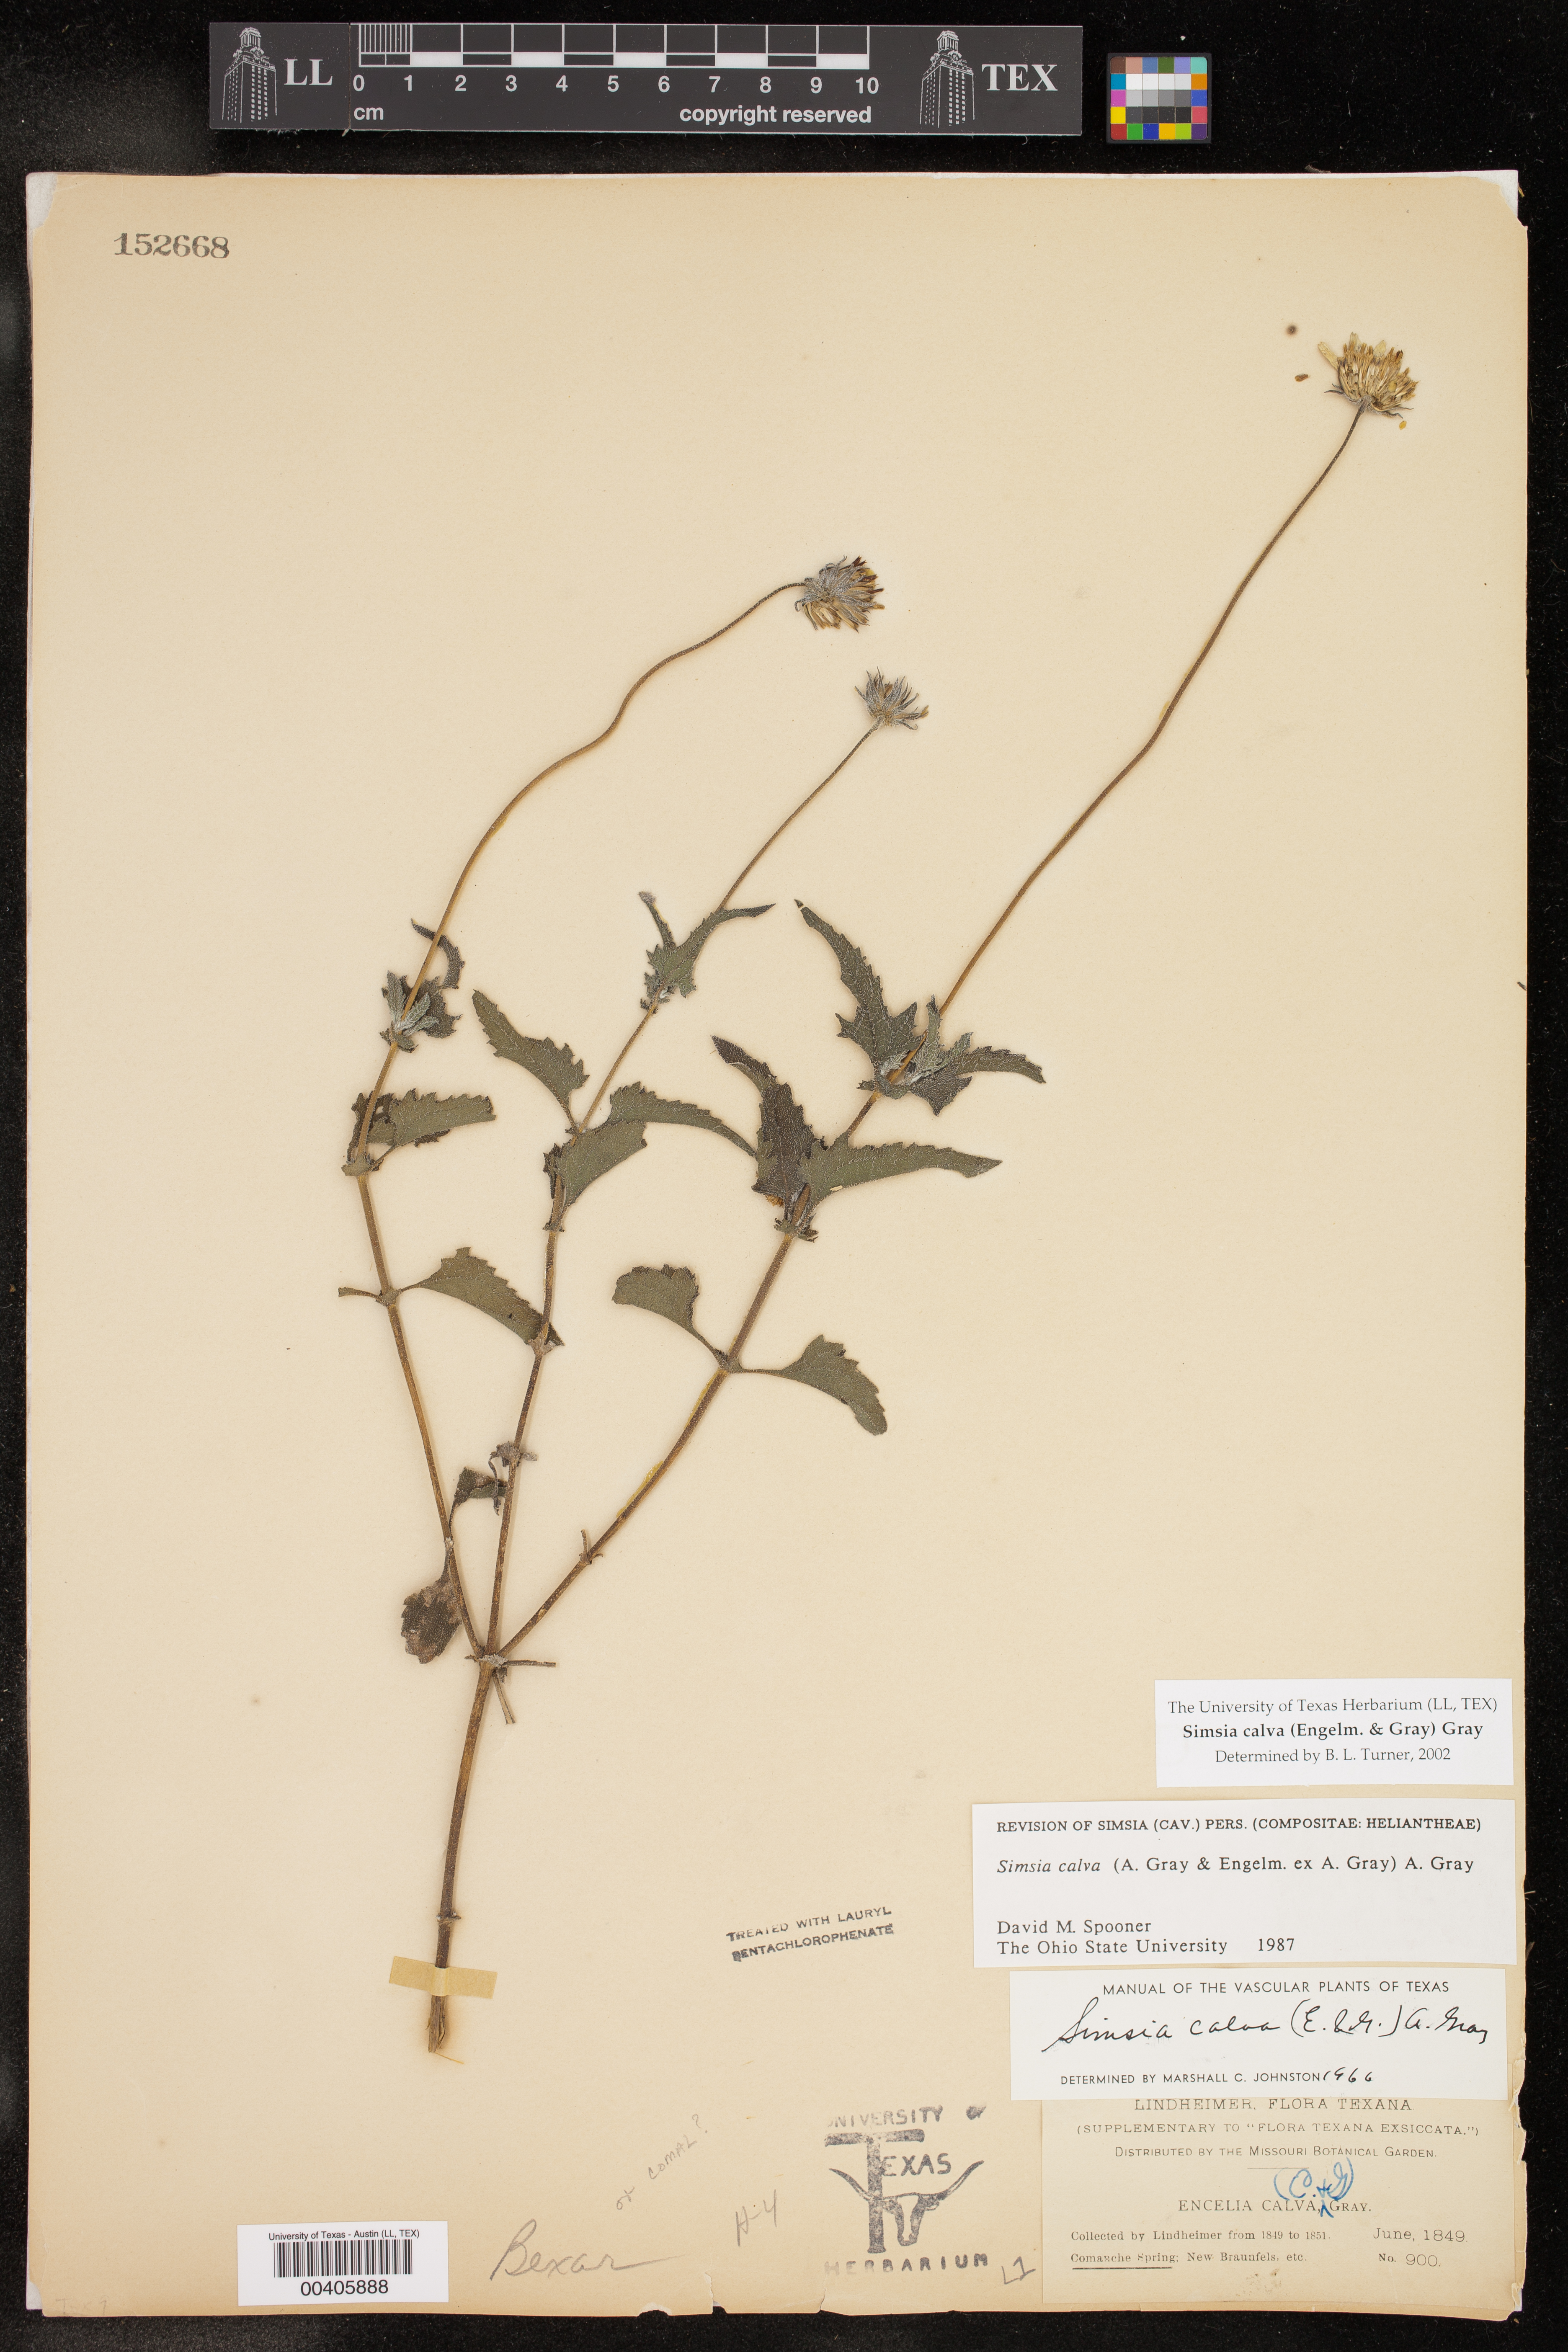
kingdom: Plantae
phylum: Tracheophyta
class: Magnoliopsida
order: Asterales
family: Asteraceae
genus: Simsia
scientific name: Simsia calva
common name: Awnless bush-sunflower
